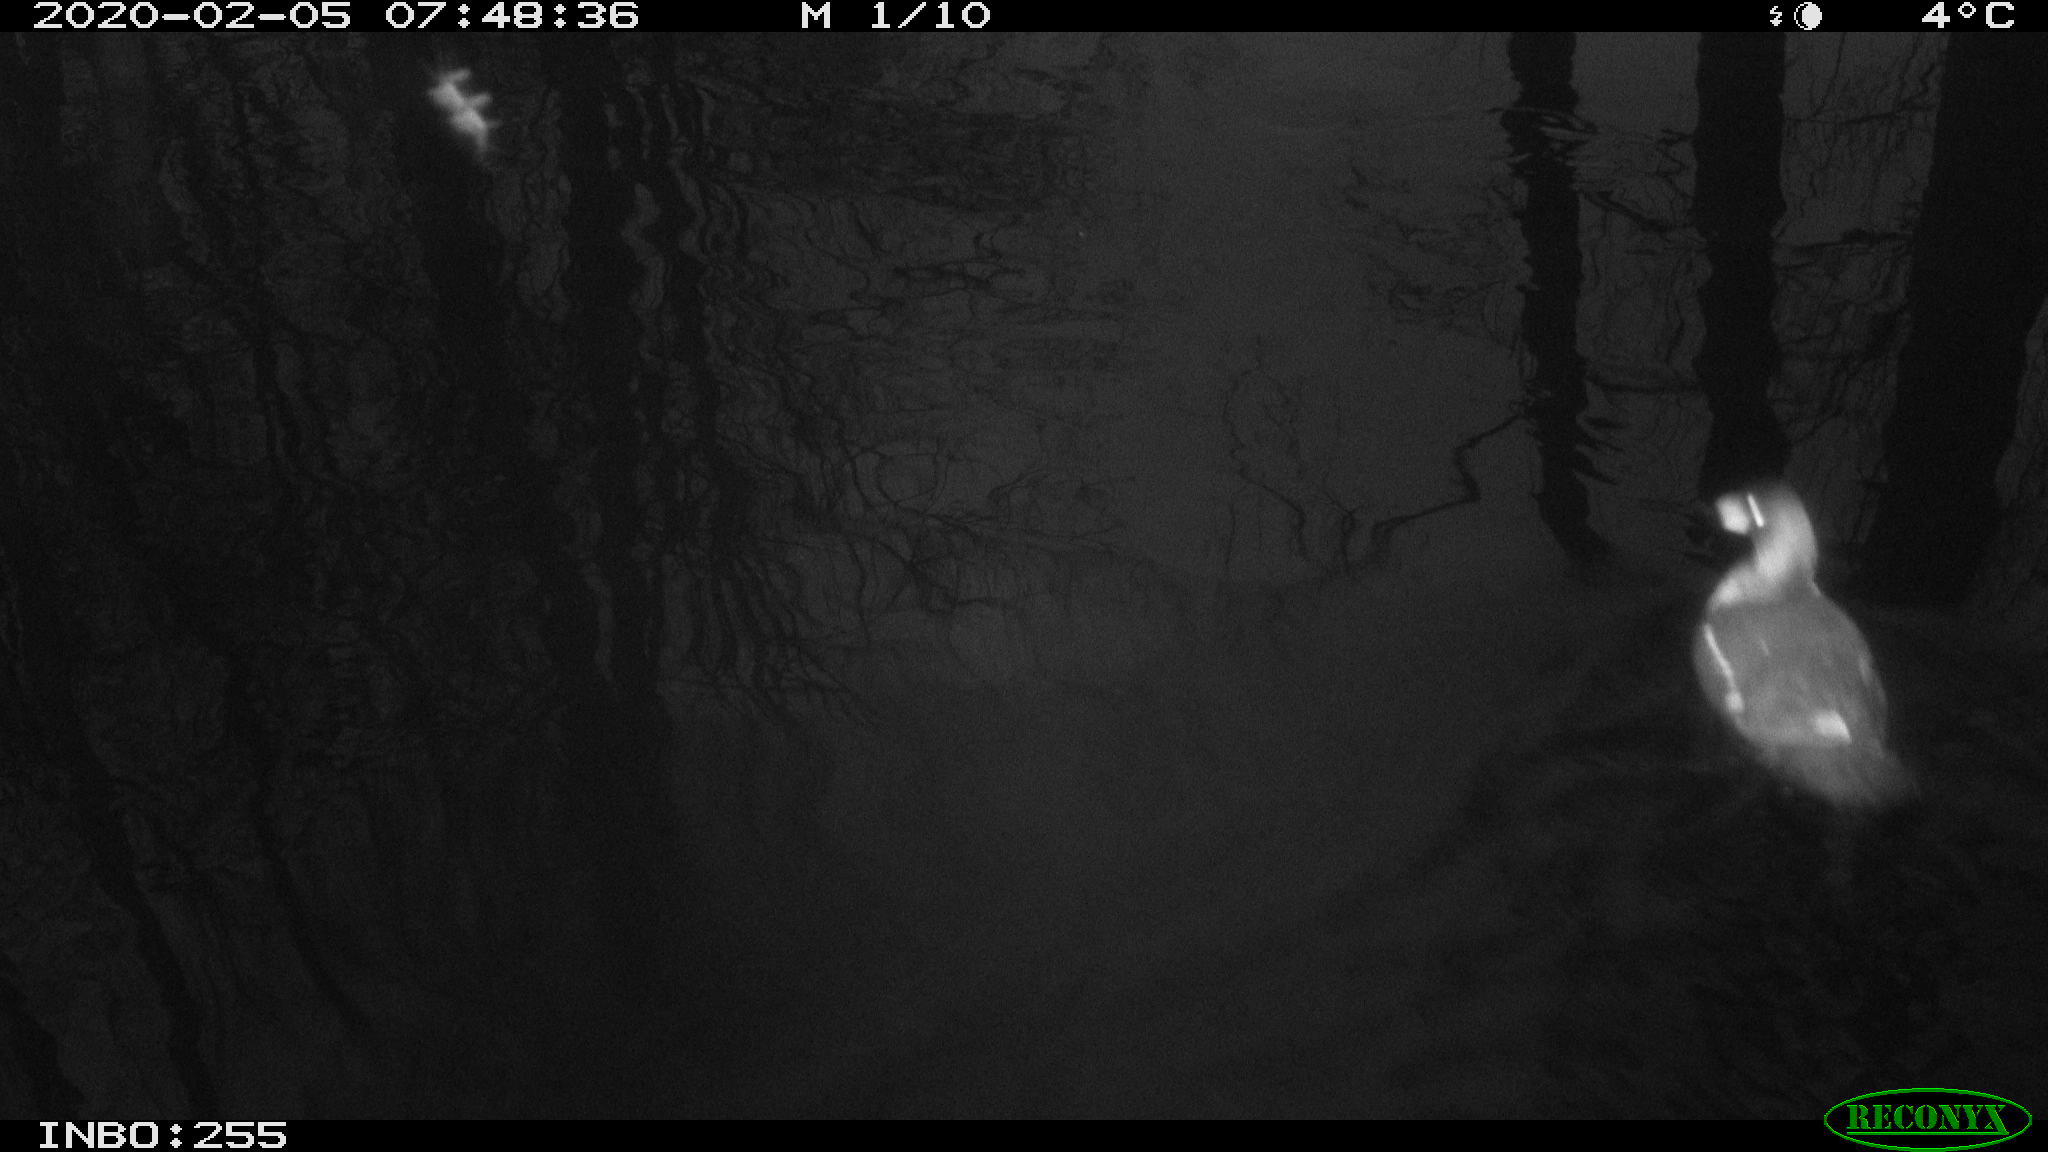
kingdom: Animalia
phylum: Chordata
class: Aves
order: Gruiformes
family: Rallidae
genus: Gallinula
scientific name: Gallinula chloropus
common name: Common moorhen
